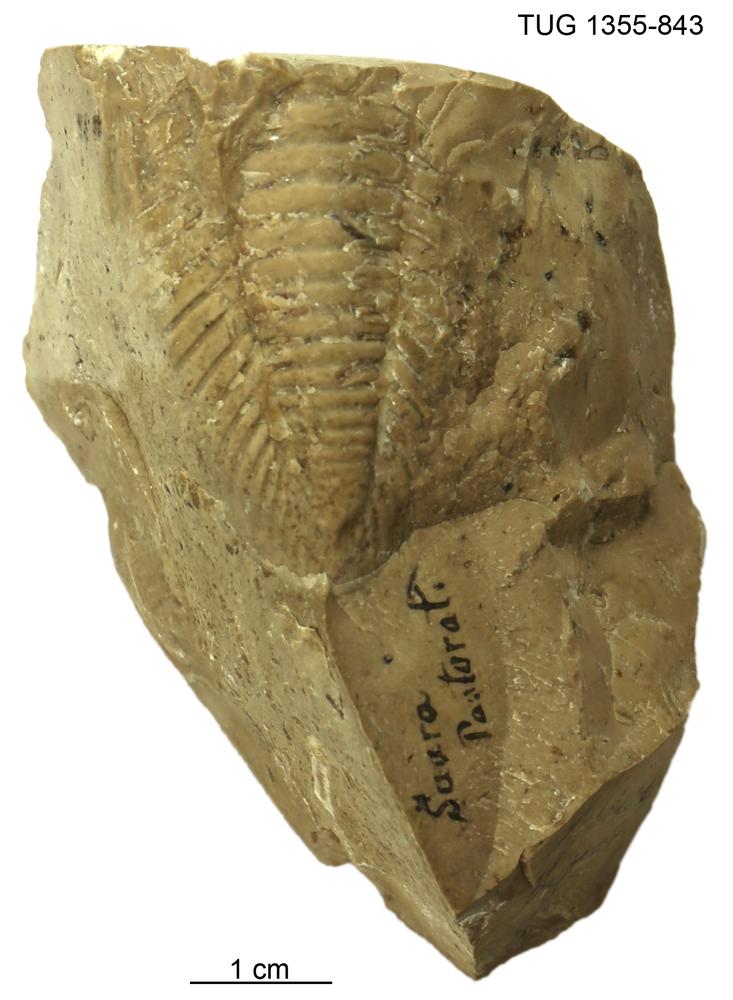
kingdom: Animalia
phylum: Arthropoda
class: Trilobita
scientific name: Trilobita
